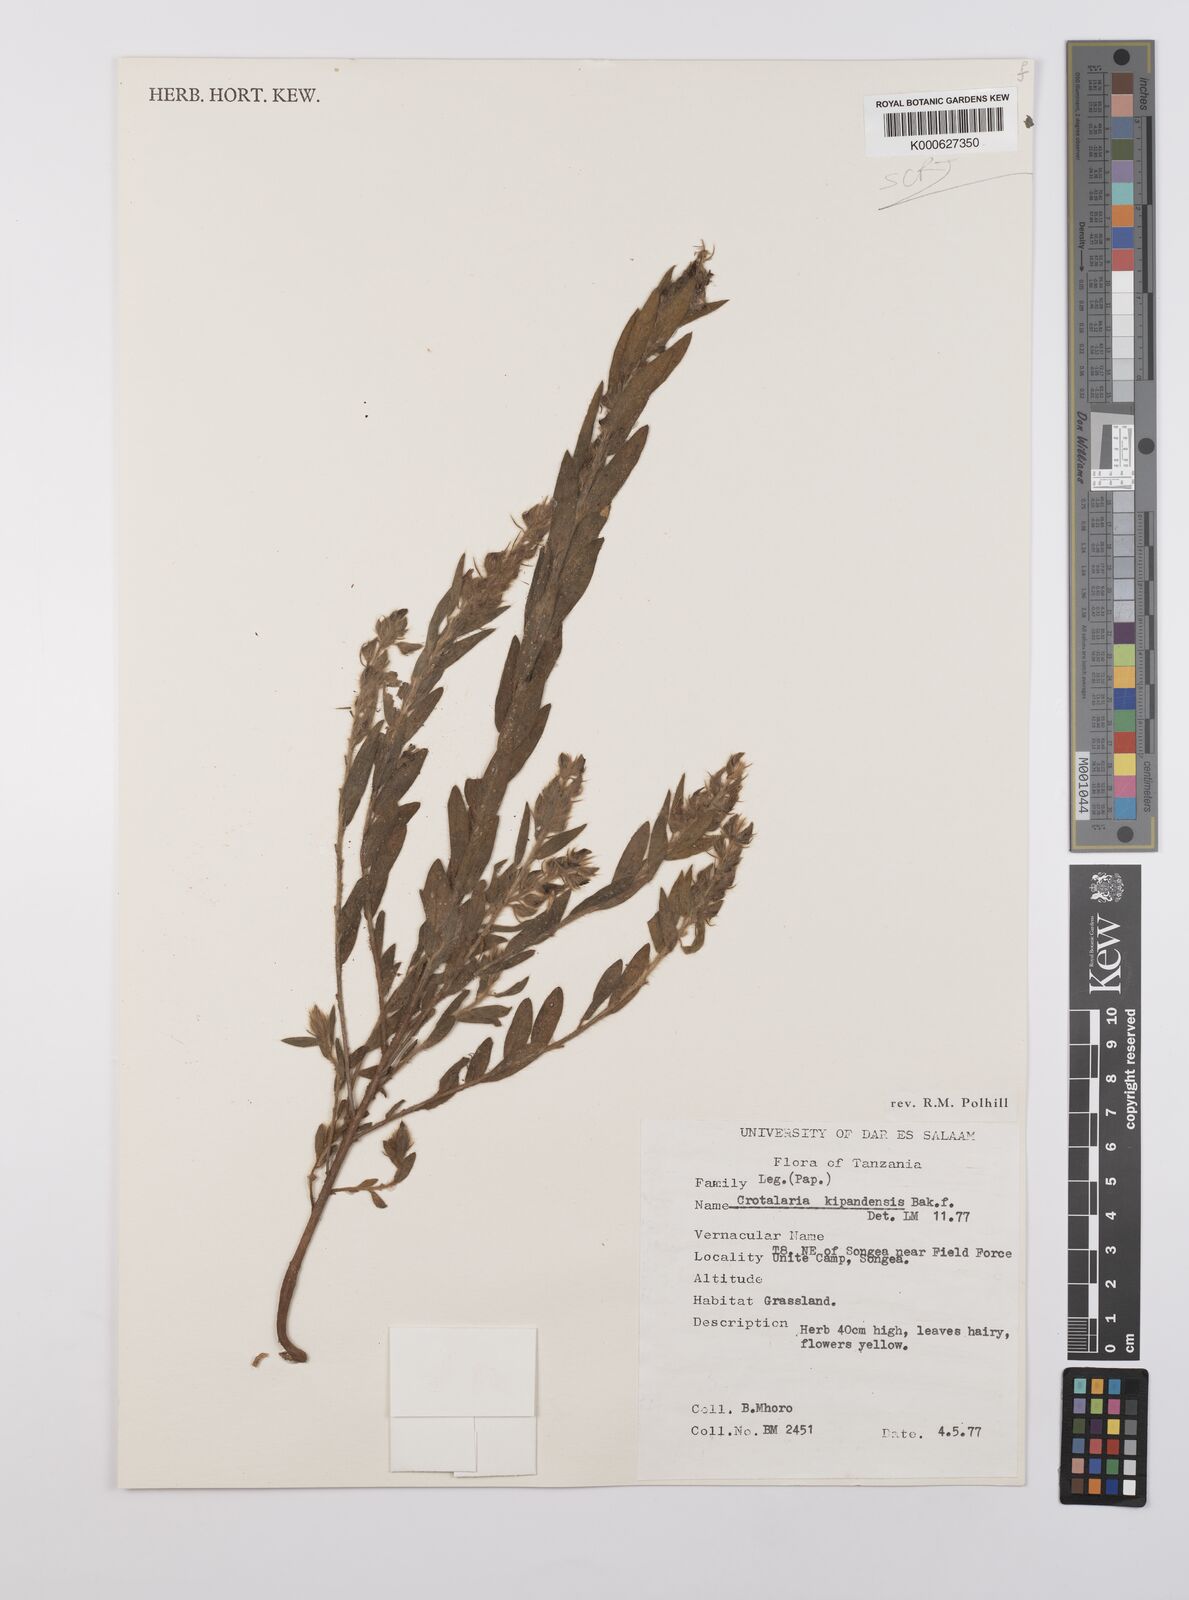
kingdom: Plantae
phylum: Tracheophyta
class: Magnoliopsida
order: Fabales
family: Fabaceae
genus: Crotalaria
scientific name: Crotalaria kipandensis
